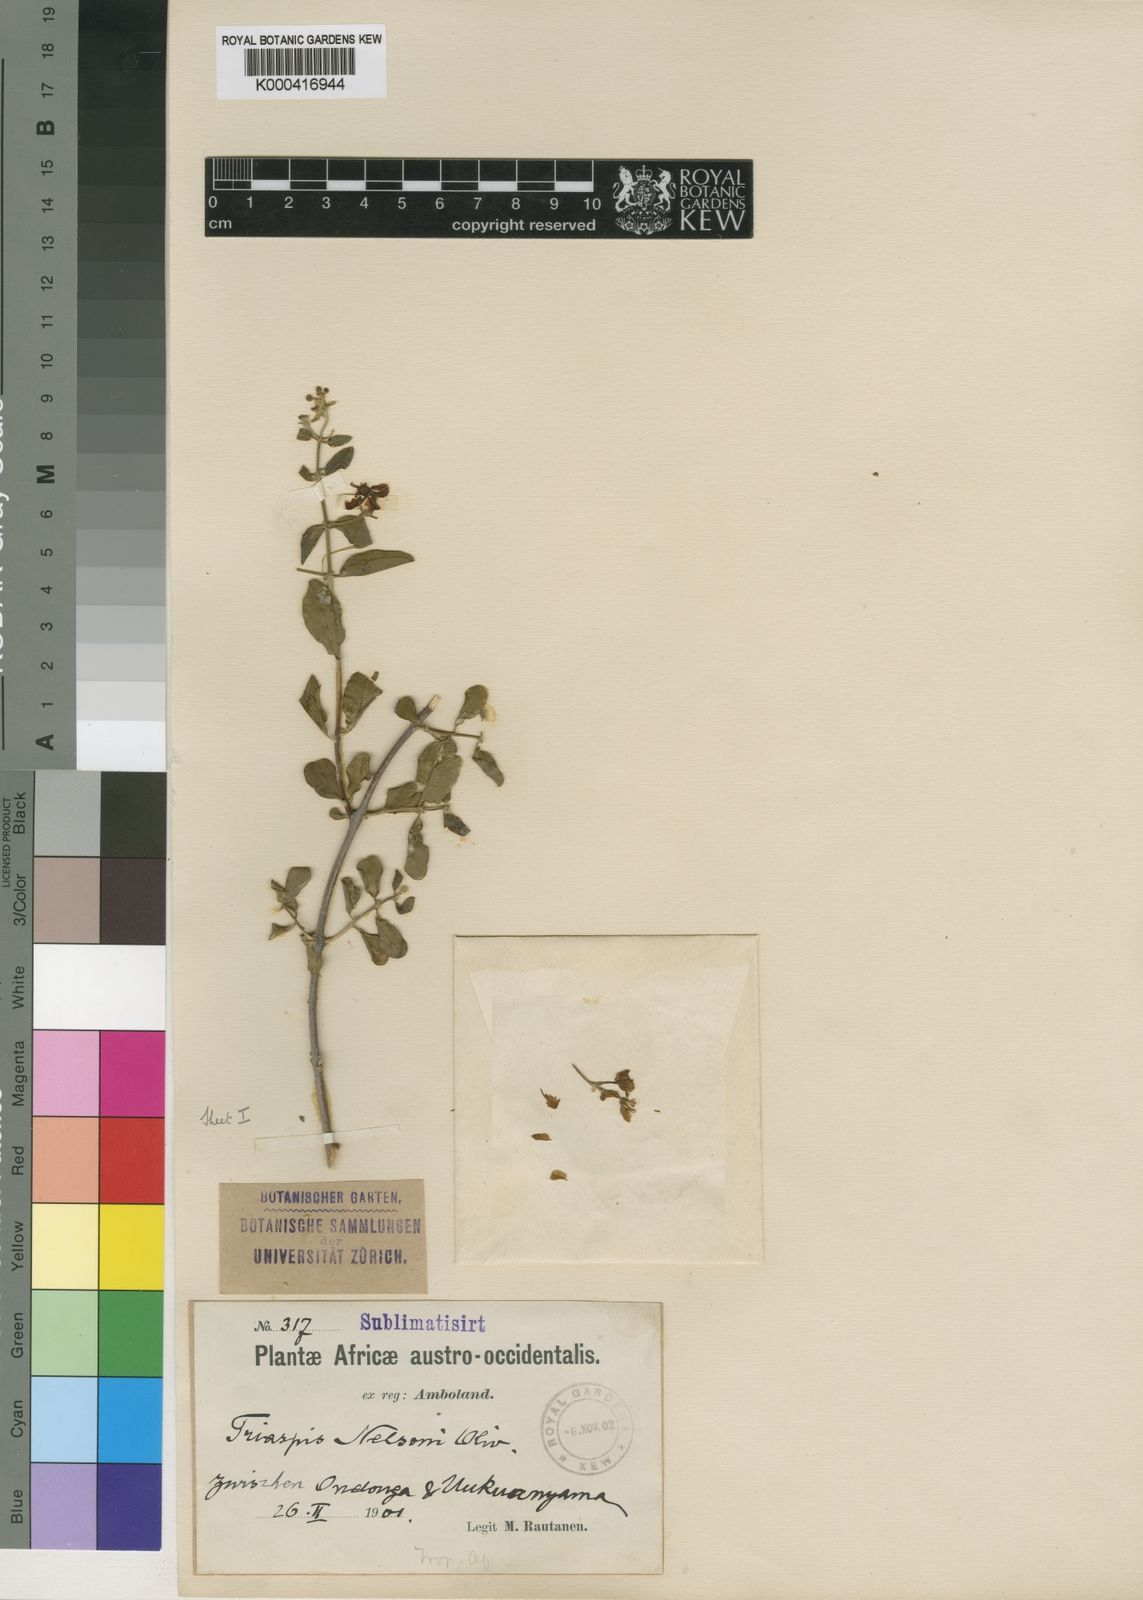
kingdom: Plantae
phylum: Tracheophyta
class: Magnoliopsida
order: Malpighiales
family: Malpighiaceae
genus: Triaspis
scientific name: Triaspis hypericoides
